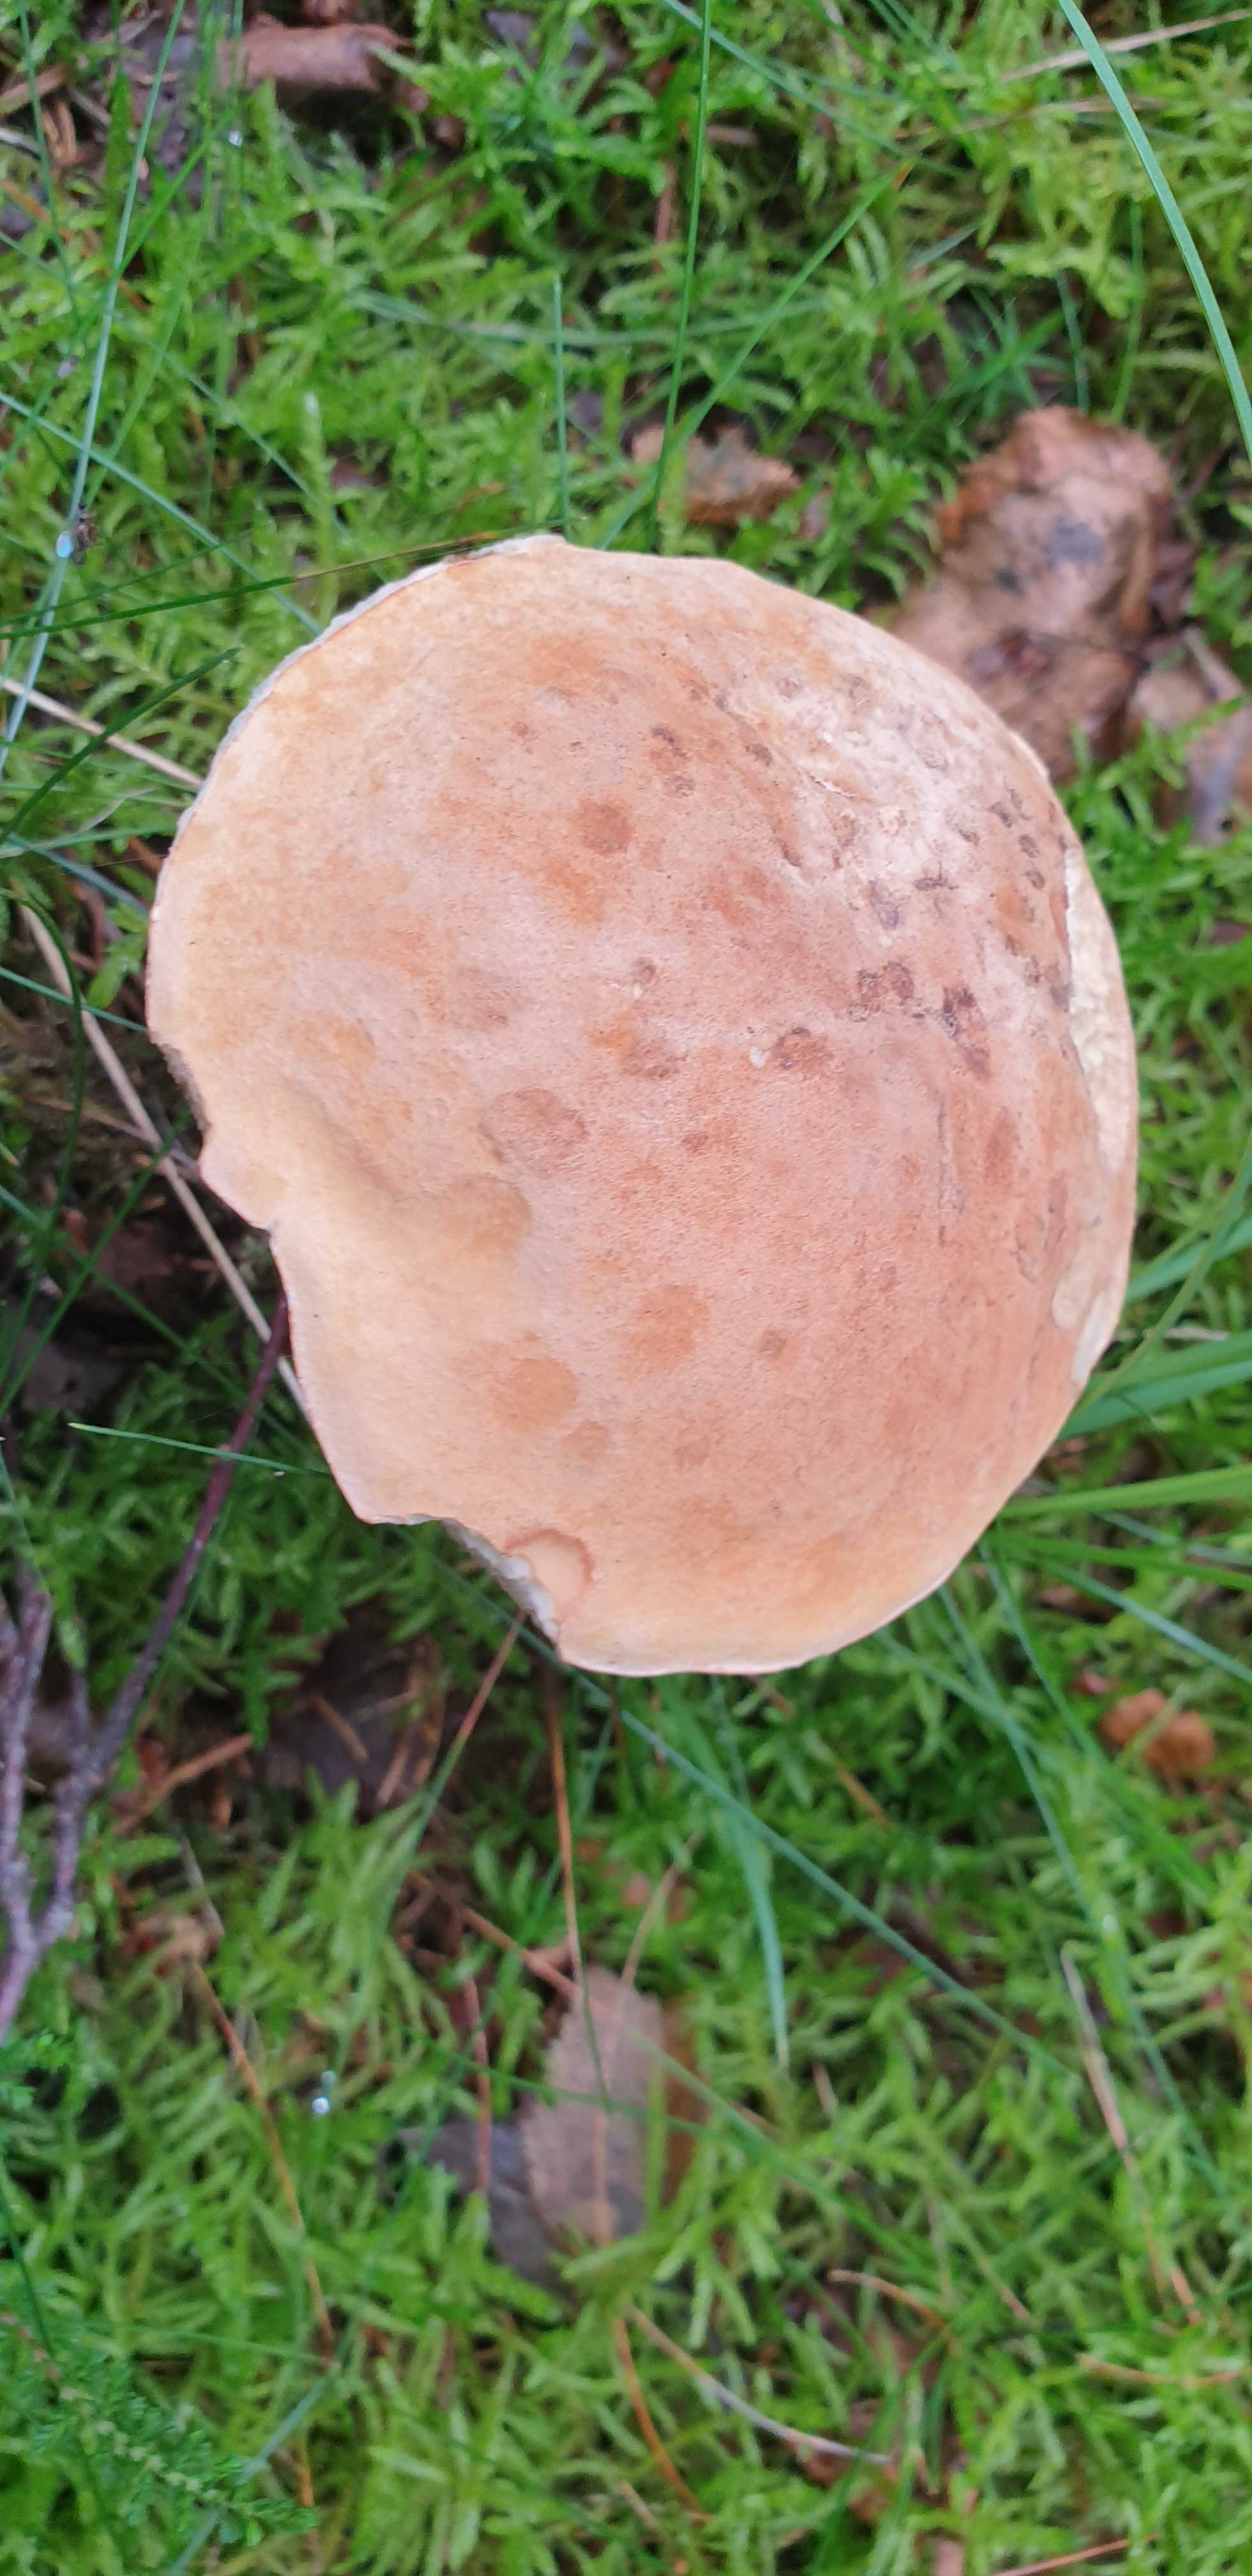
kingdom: Fungi
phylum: Basidiomycota
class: Agaricomycetes
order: Boletales
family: Boletaceae
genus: Tylopilus
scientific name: Tylopilus felleus
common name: galderørhat
